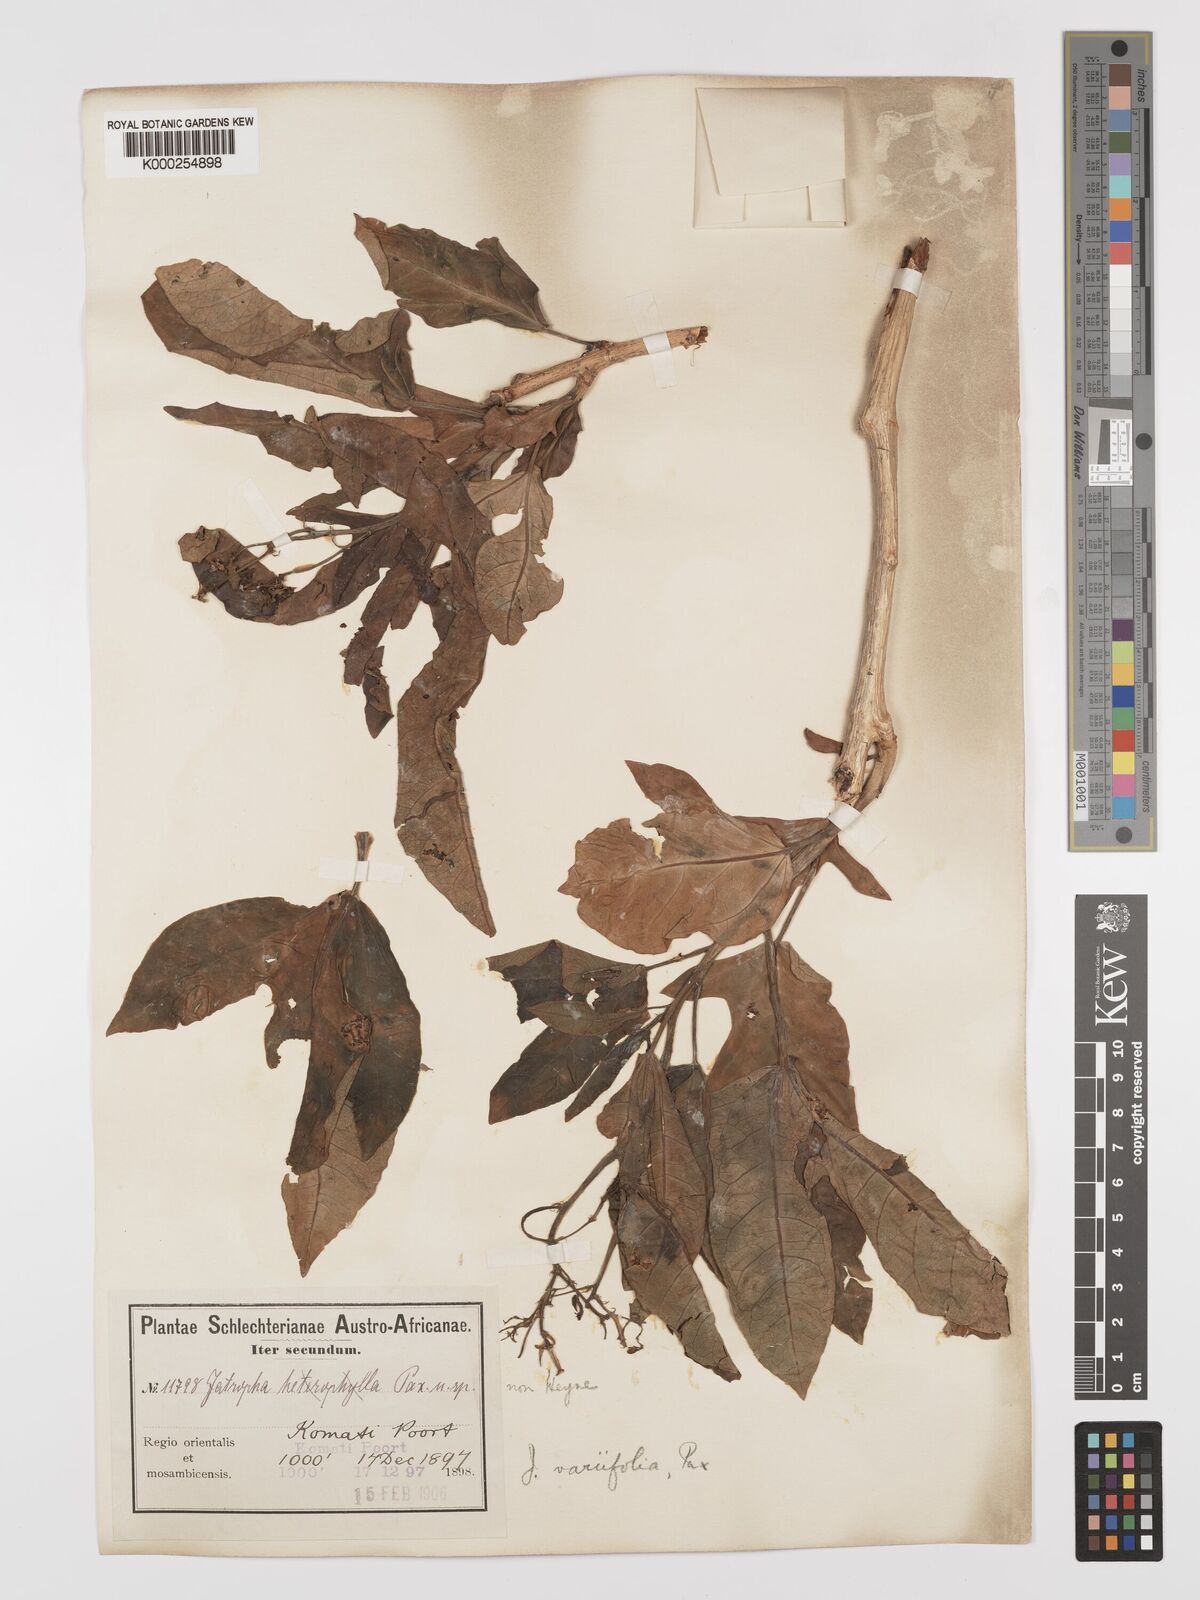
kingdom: Plantae
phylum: Tracheophyta
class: Magnoliopsida
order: Malpighiales
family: Euphorbiaceae
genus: Jatropha
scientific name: Jatropha variifolia
